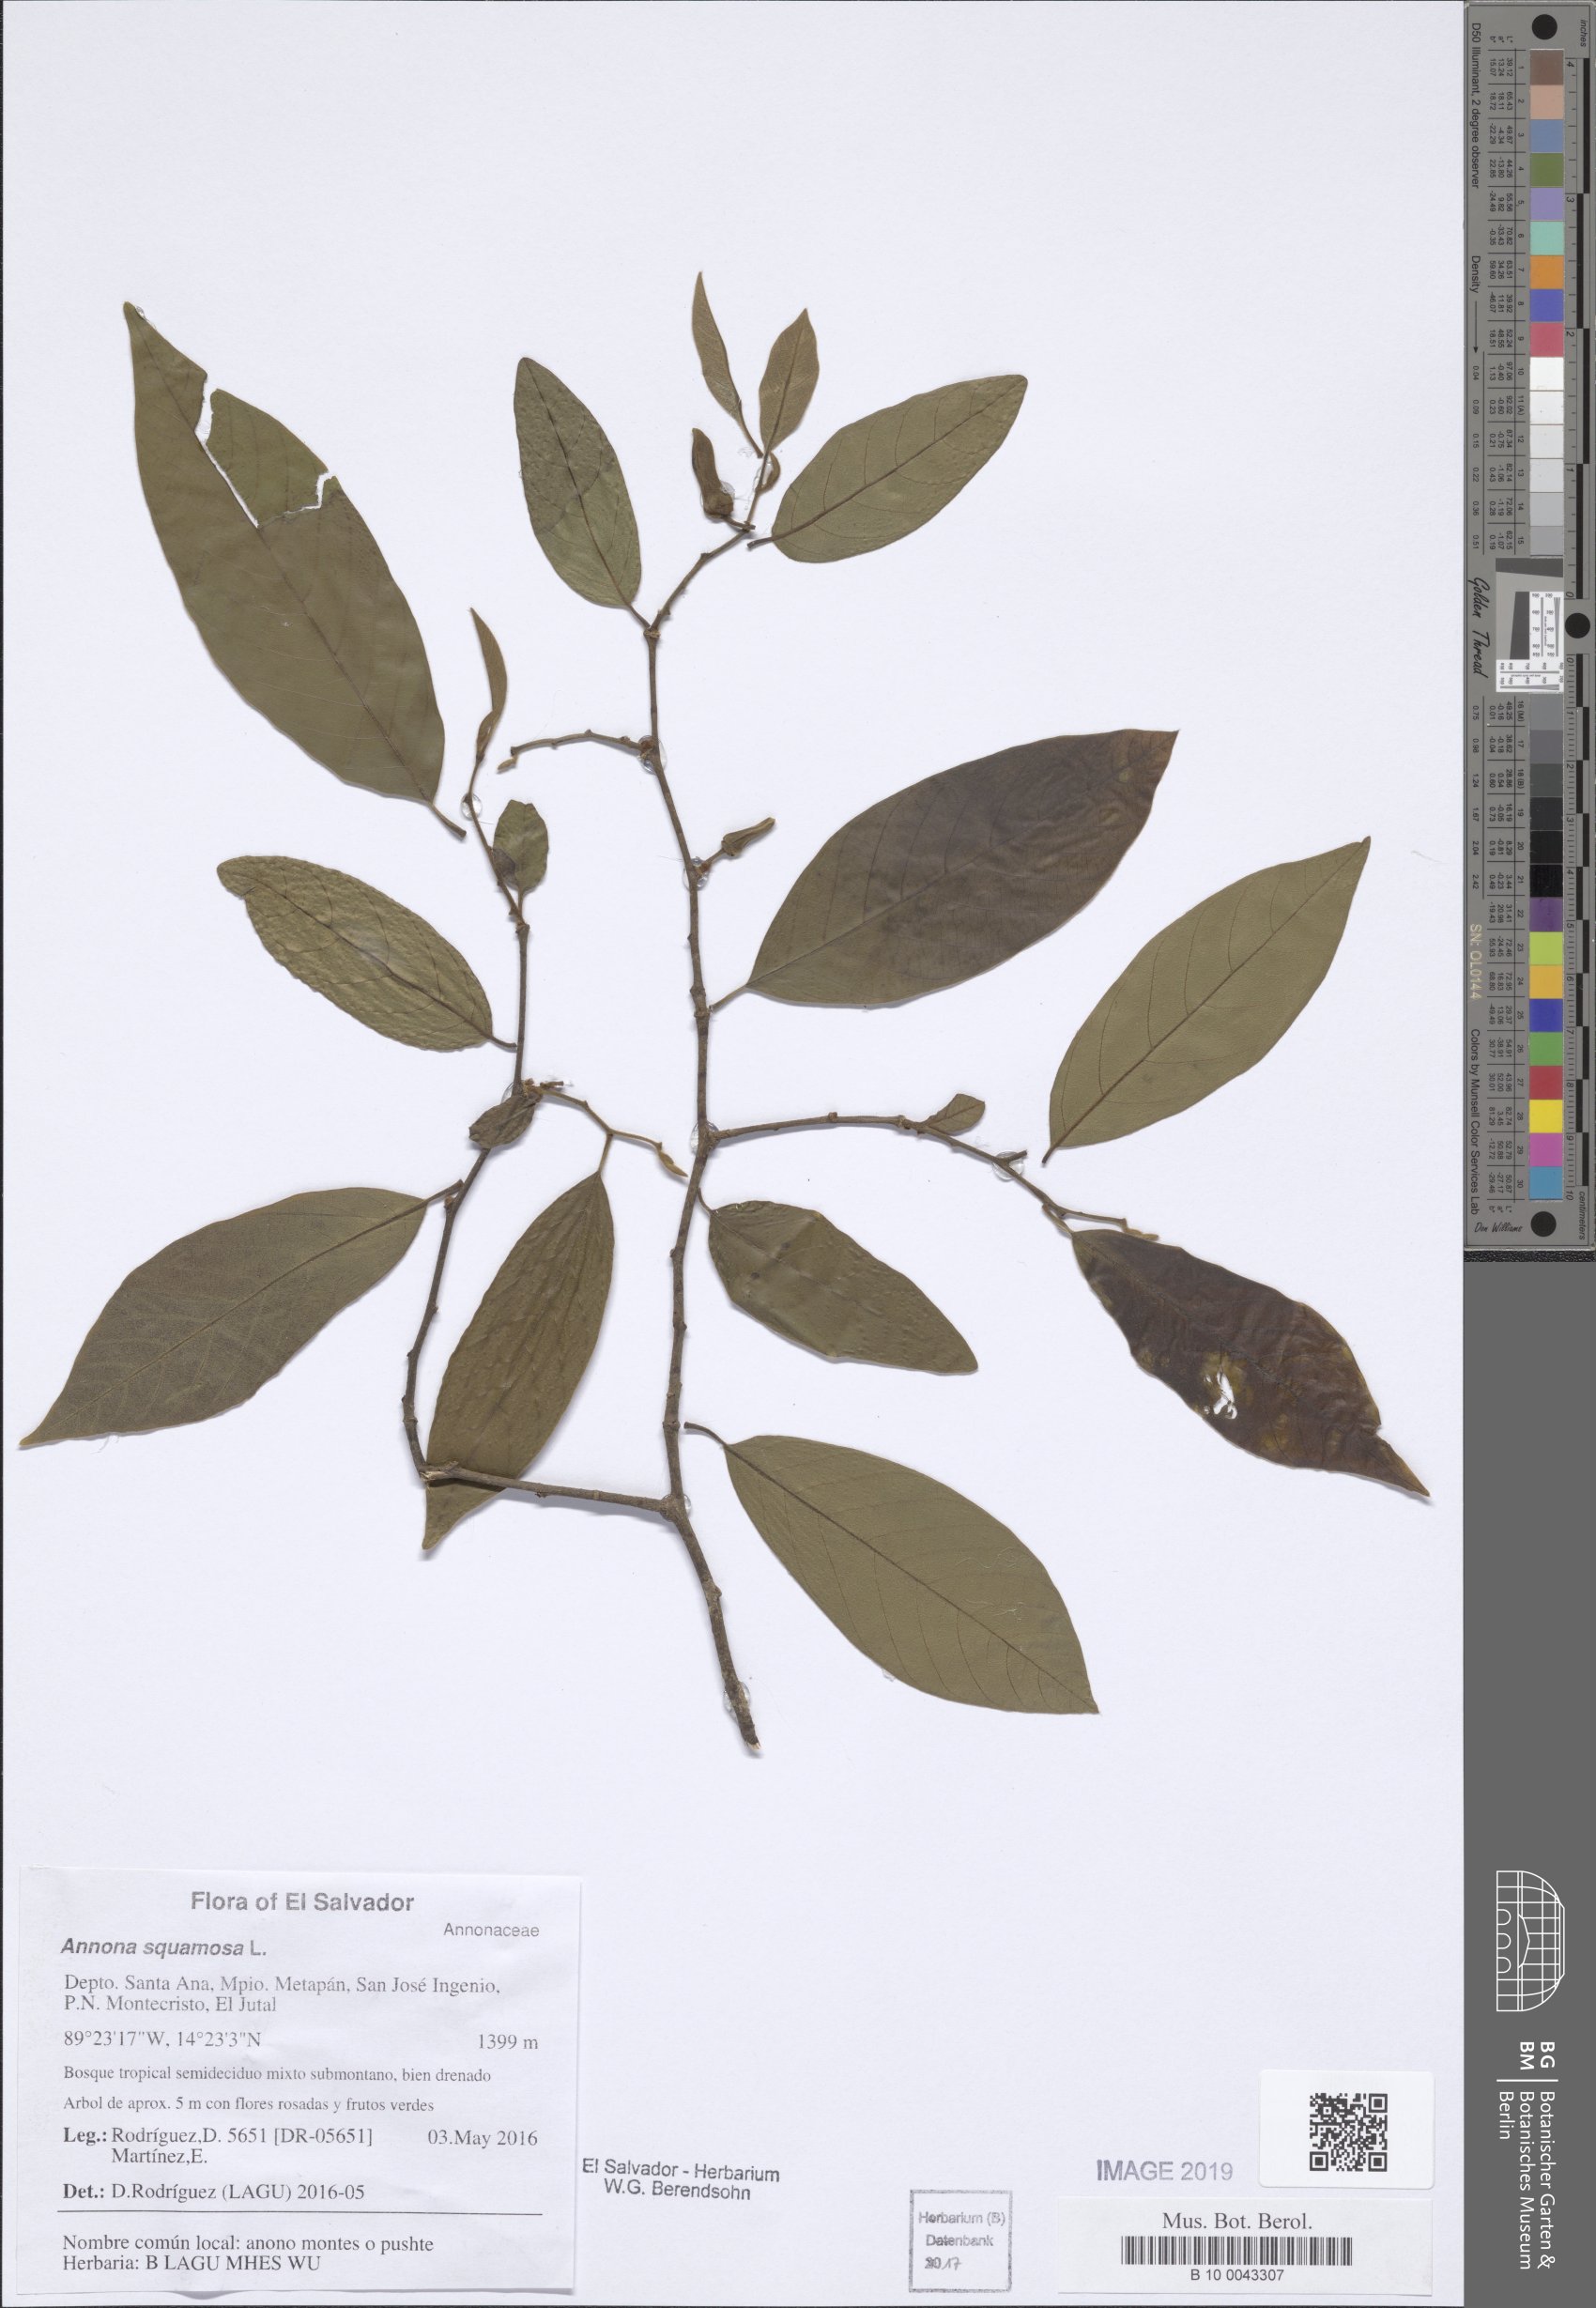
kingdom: Plantae
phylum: Tracheophyta
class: Magnoliopsida
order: Magnoliales
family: Annonaceae
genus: Annona
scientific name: Annona squamosa
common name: Custard-apple
